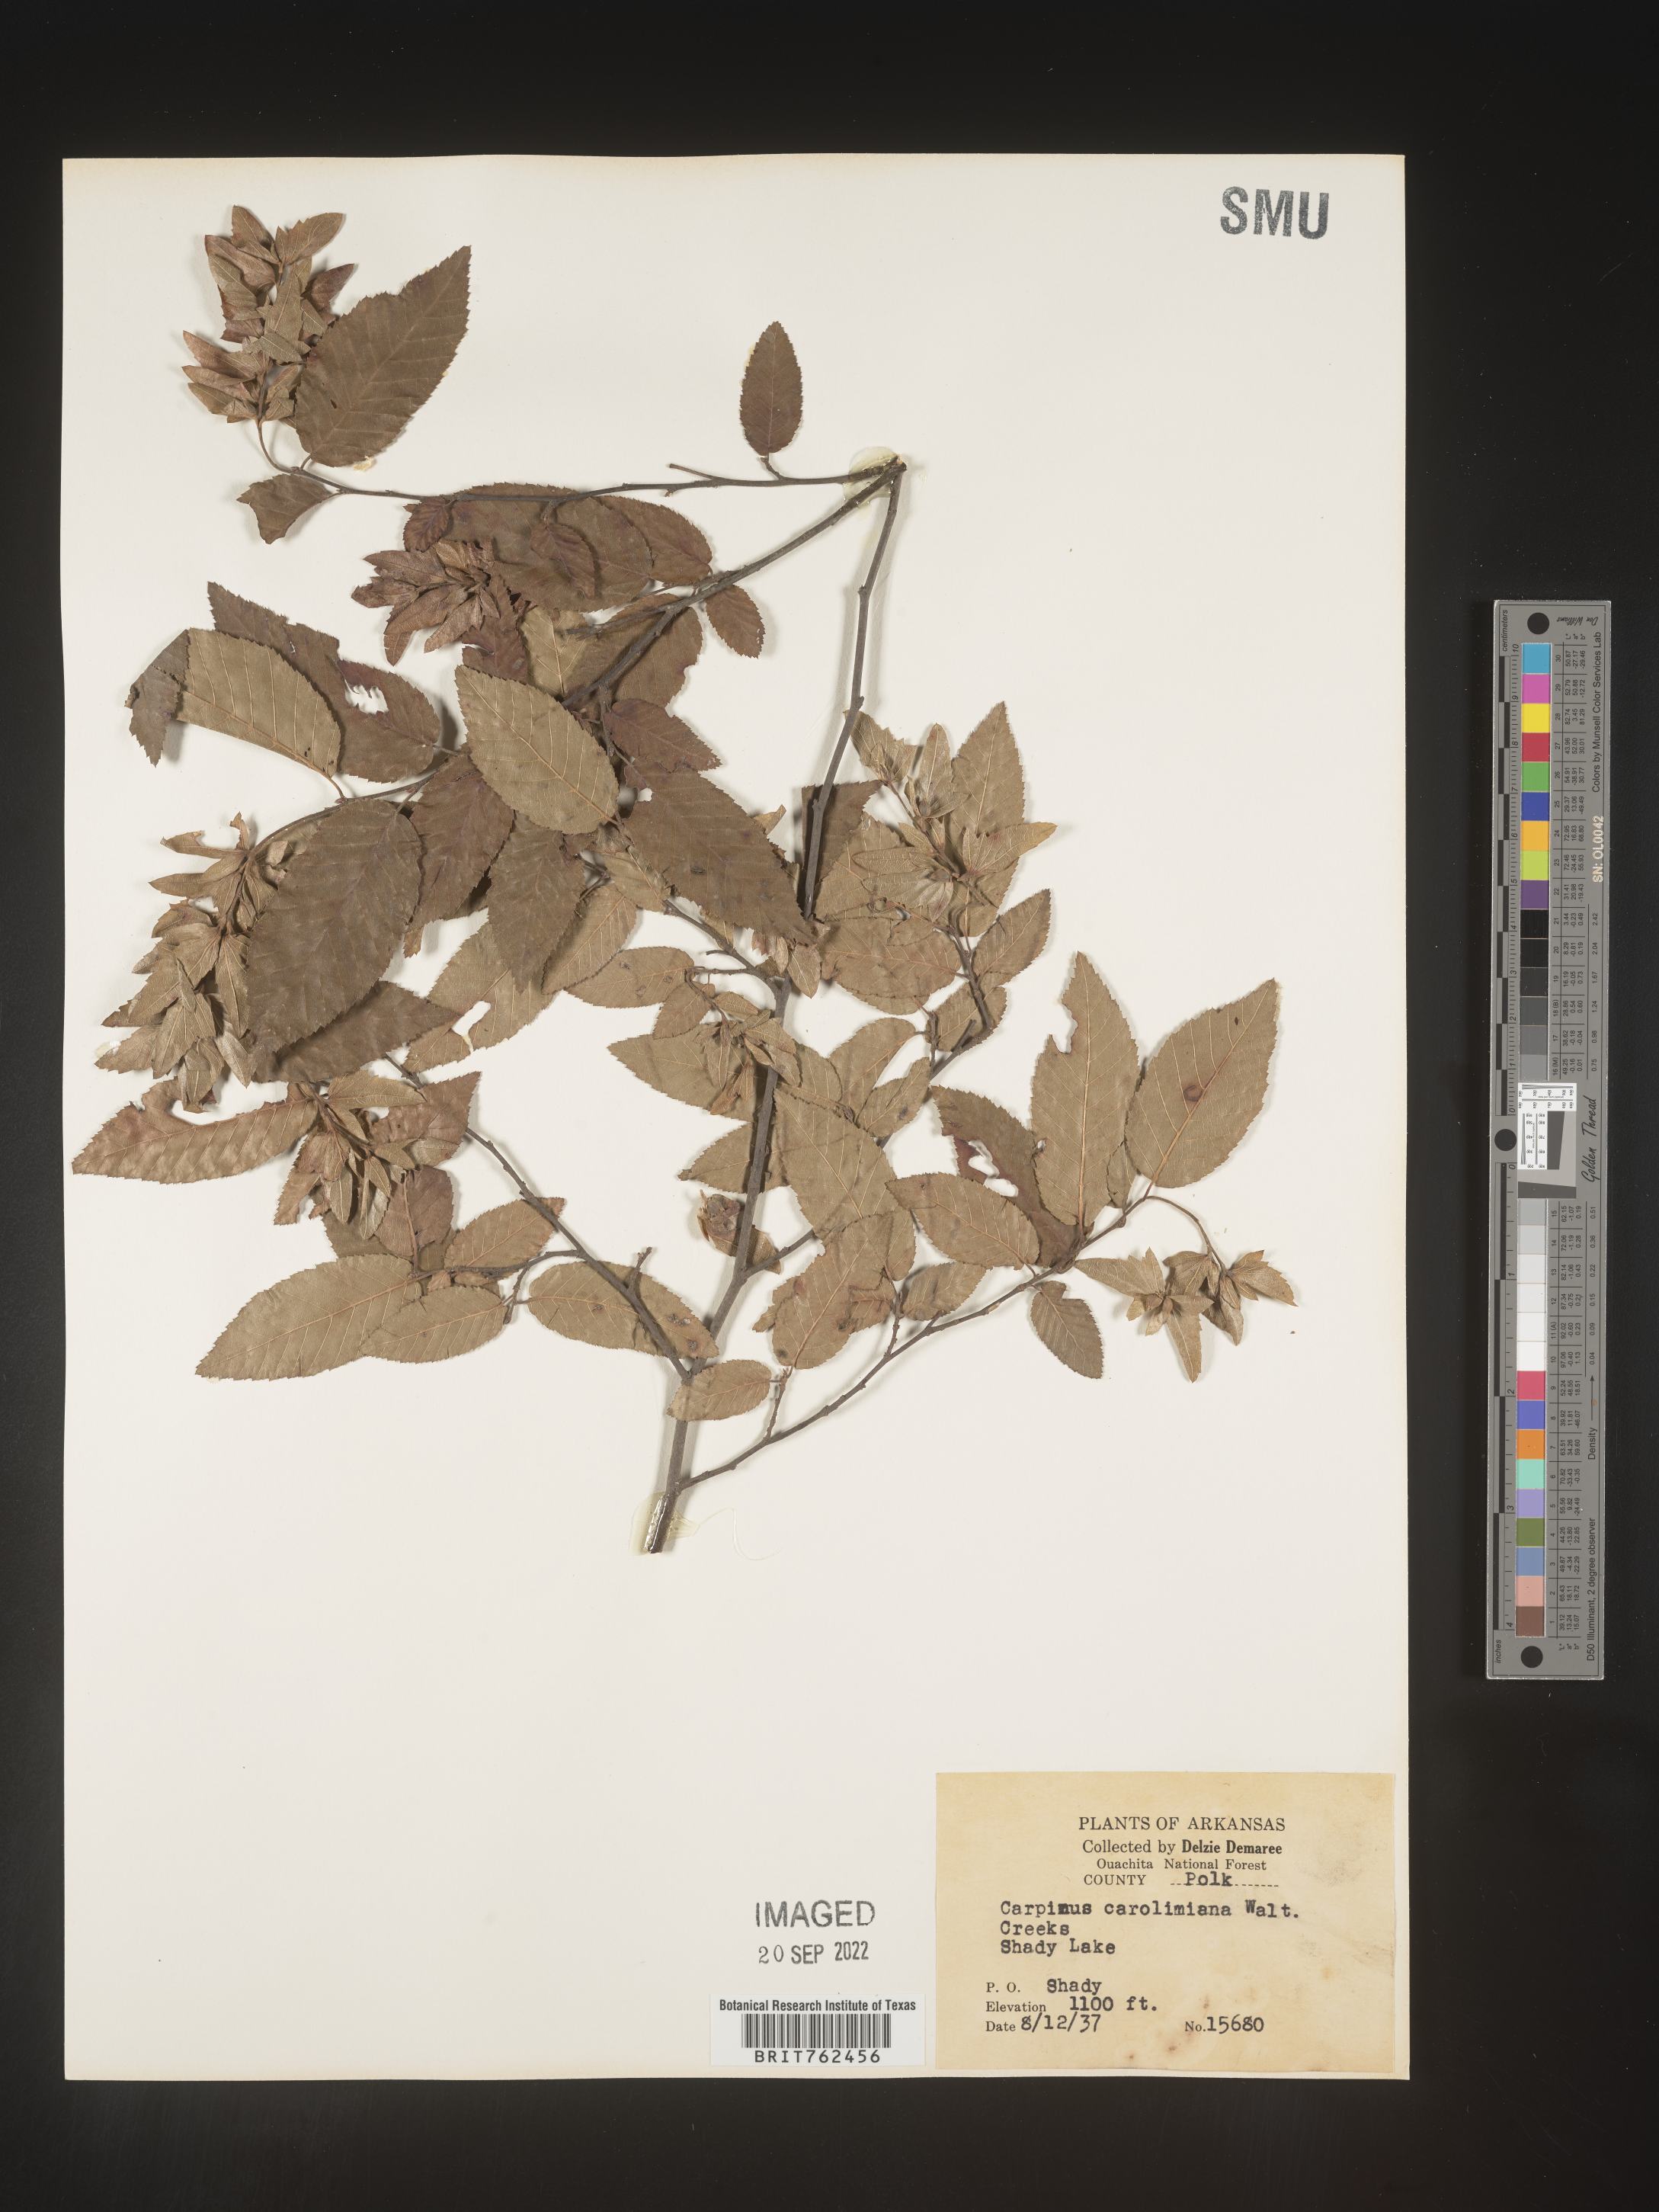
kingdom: Plantae
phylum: Tracheophyta
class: Magnoliopsida
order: Fagales
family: Betulaceae
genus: Carpinus
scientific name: Carpinus caroliniana
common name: American hornbeam
